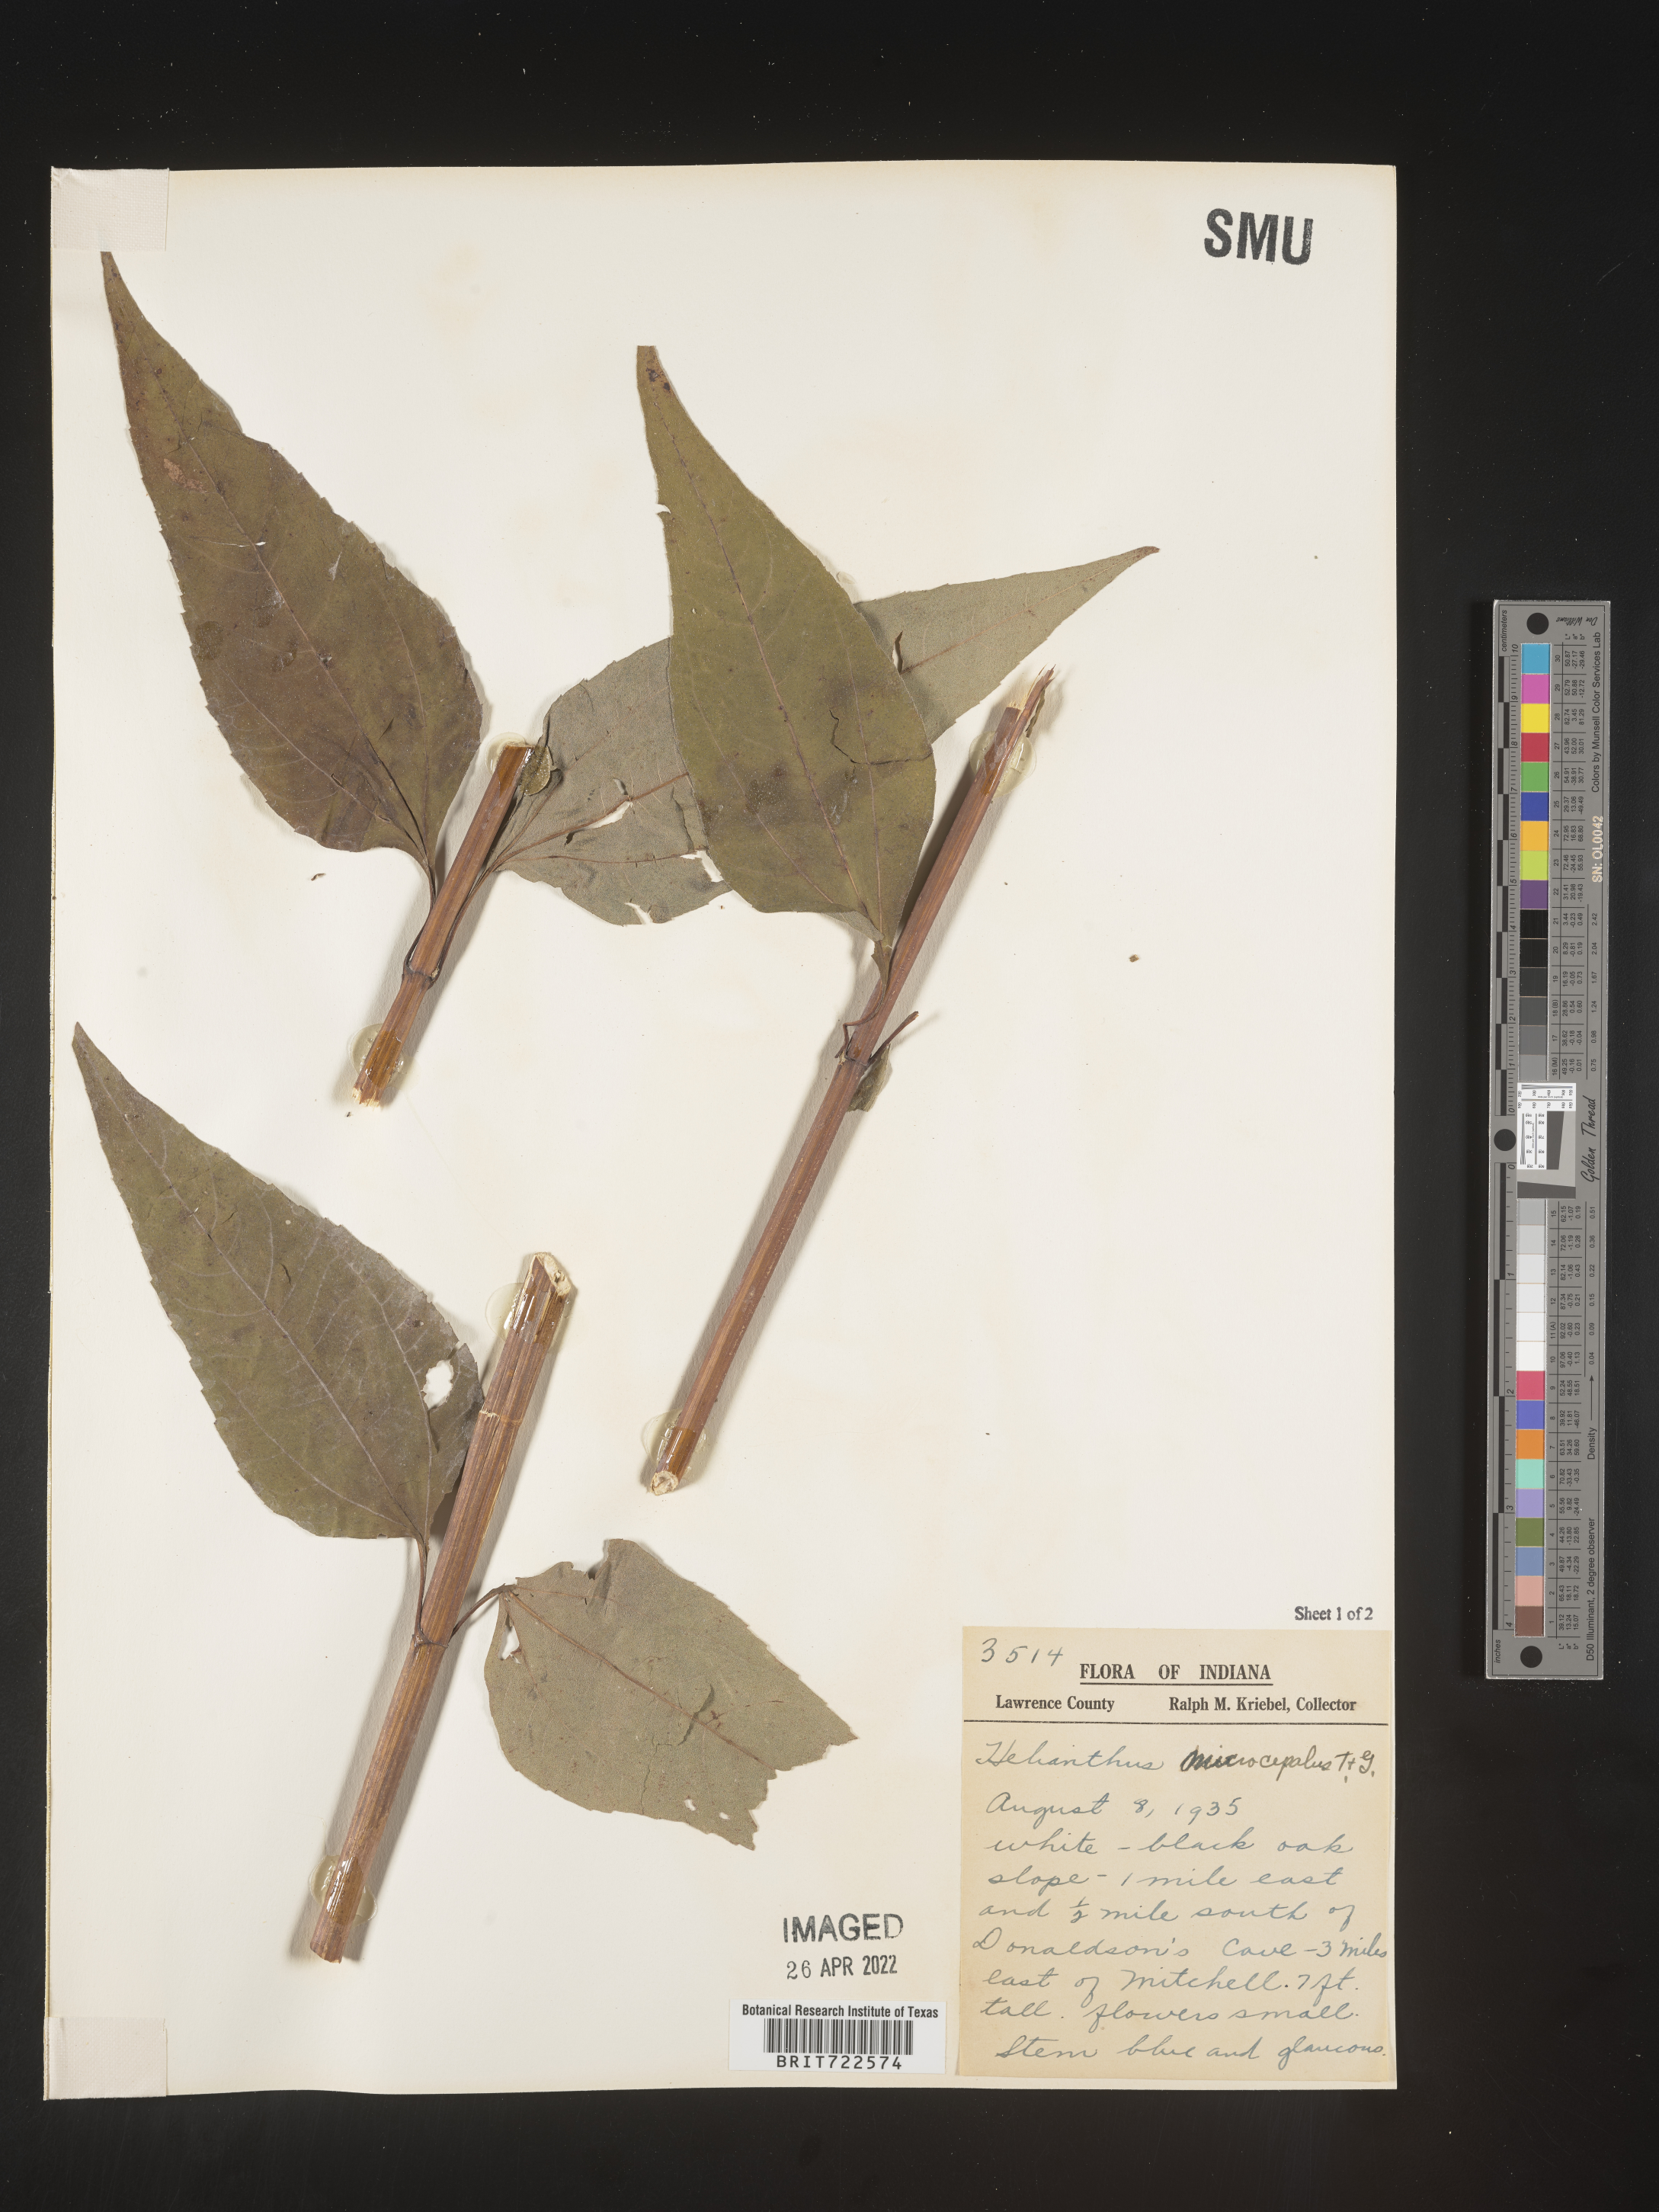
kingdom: Plantae
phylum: Tracheophyta
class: Magnoliopsida
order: Asterales
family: Asteraceae
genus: Helianthus
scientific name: Helianthus microcephalus
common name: Woodland sunflower
